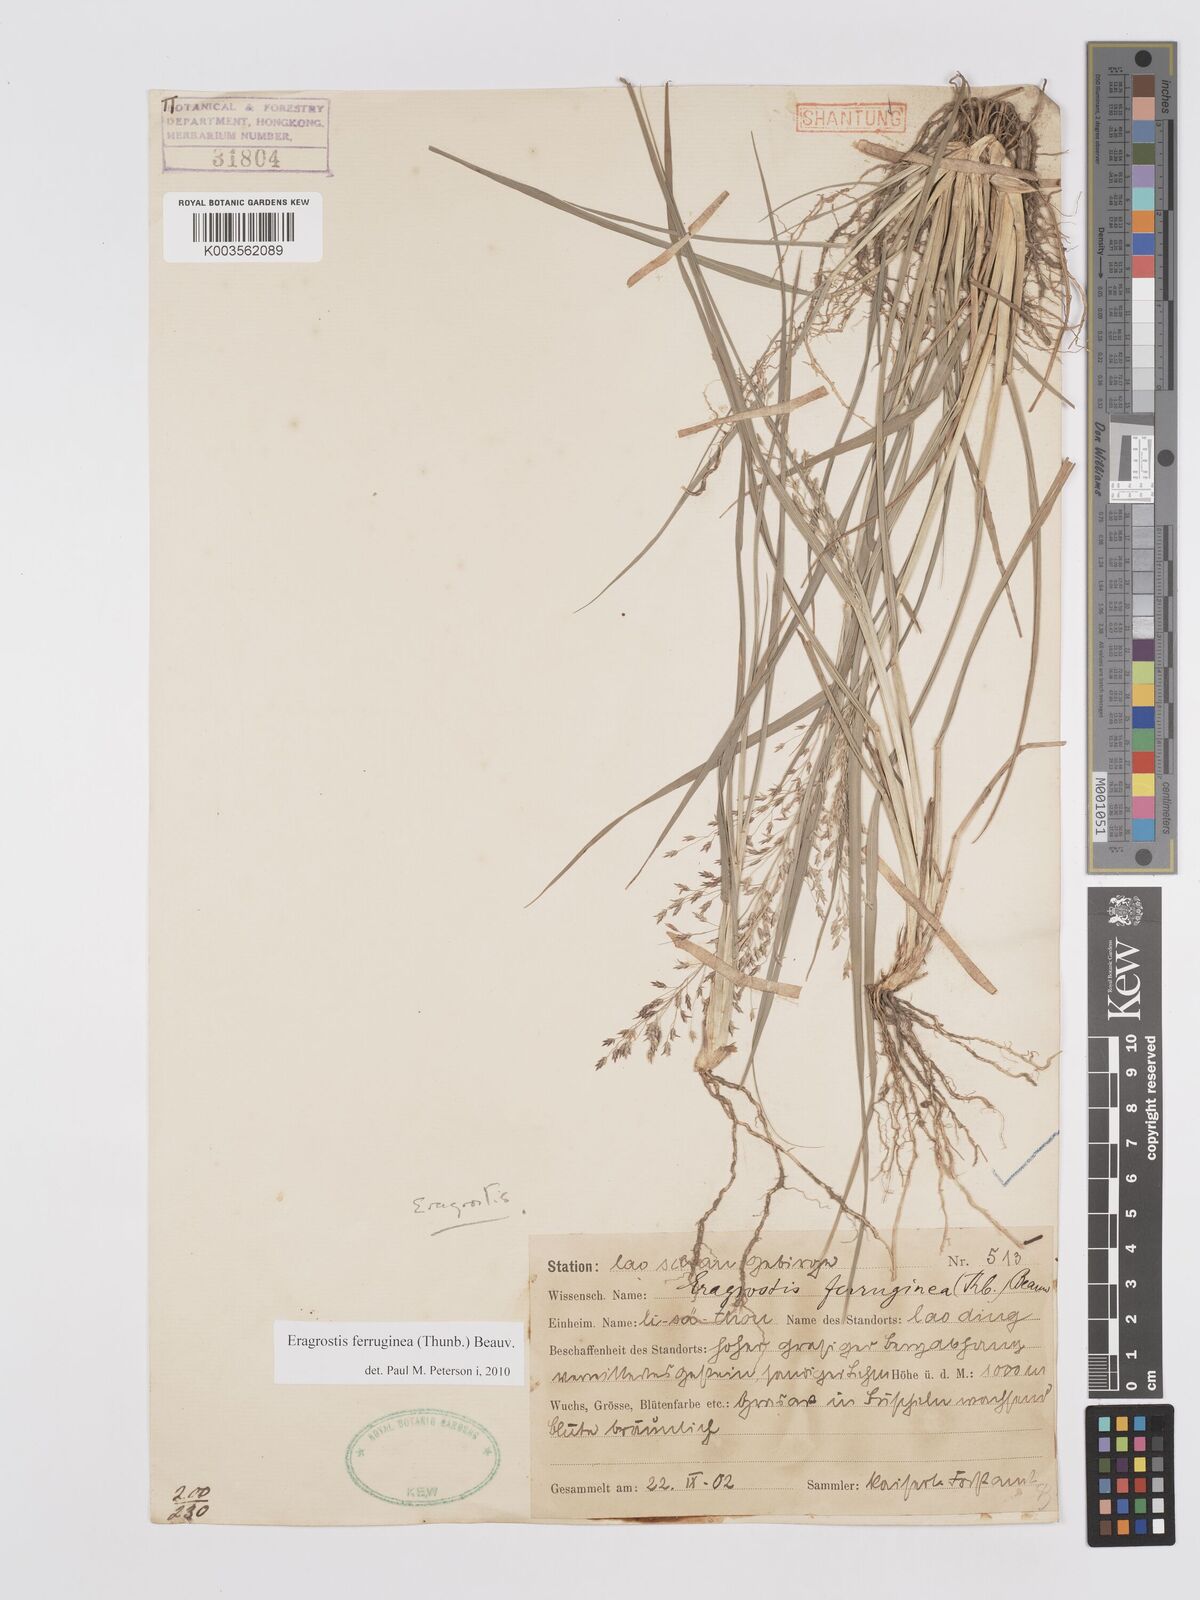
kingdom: Plantae
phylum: Tracheophyta
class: Liliopsida
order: Poales
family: Poaceae
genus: Eragrostis
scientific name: Eragrostis ferruginea
